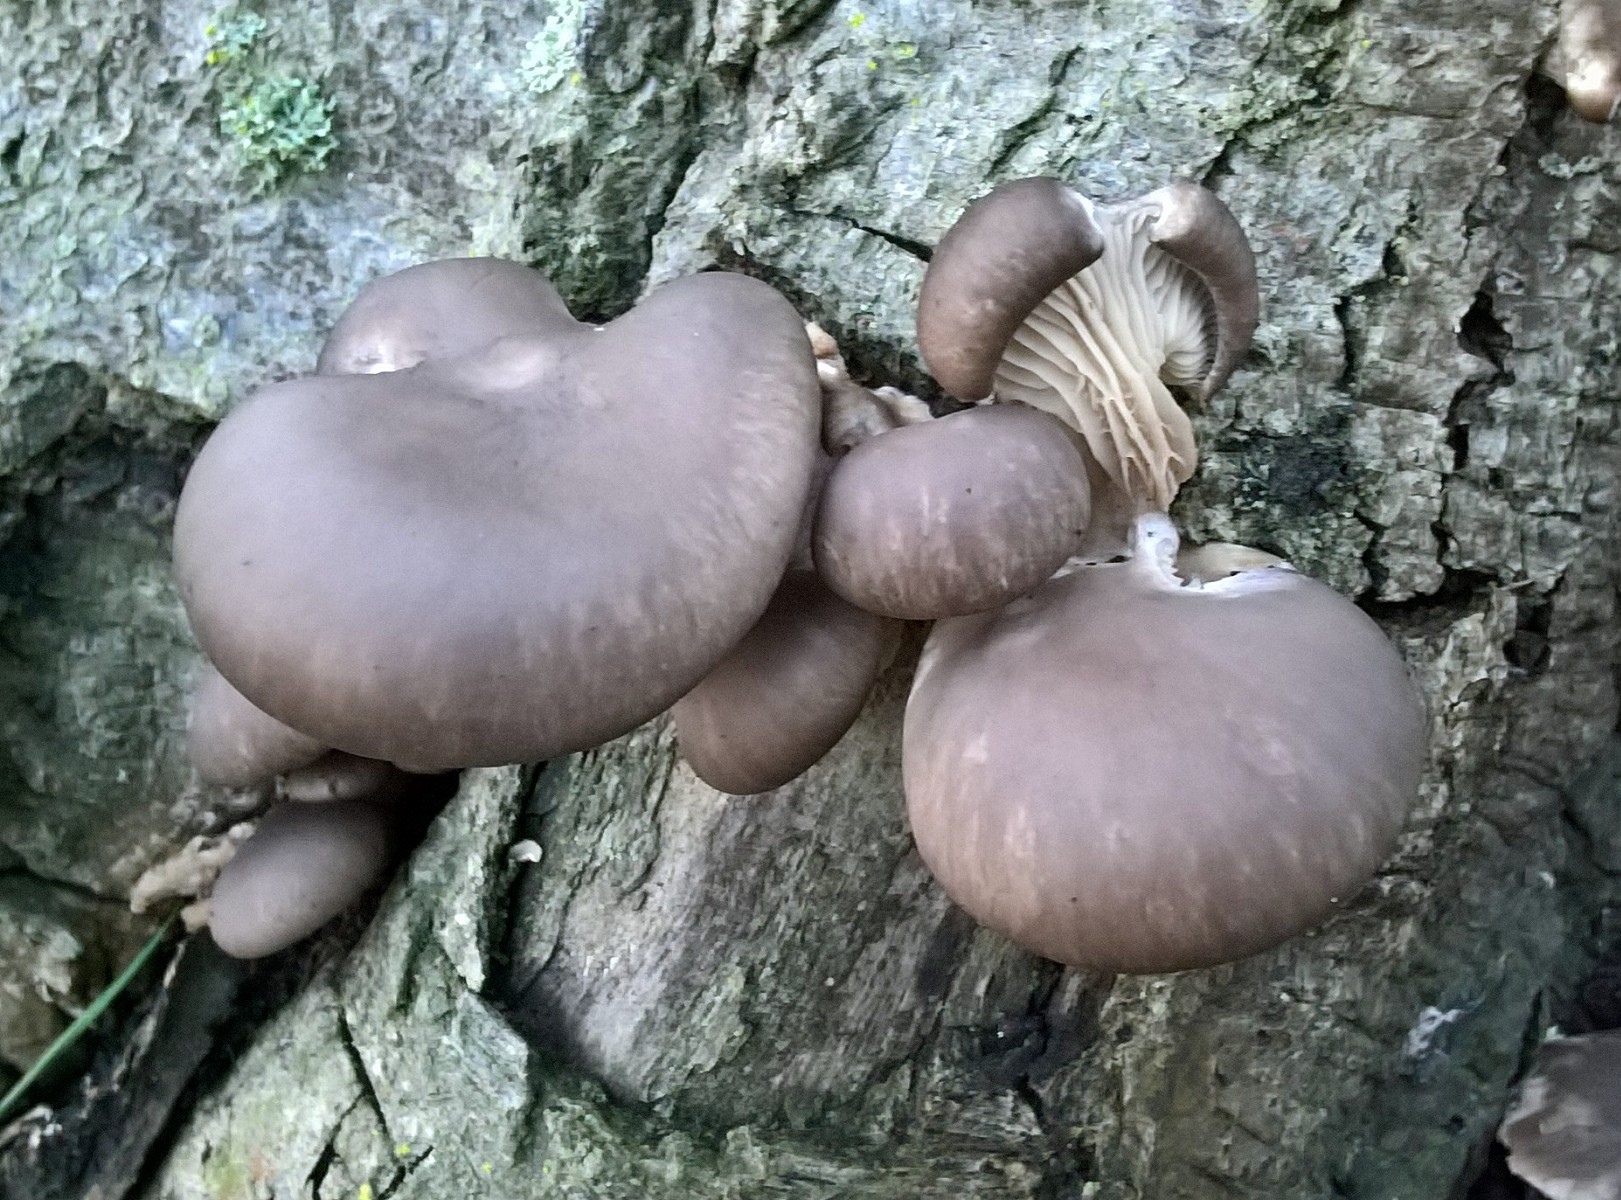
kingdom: Fungi
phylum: Basidiomycota
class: Agaricomycetes
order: Agaricales
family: Pleurotaceae
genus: Pleurotus
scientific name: Pleurotus ostreatus
